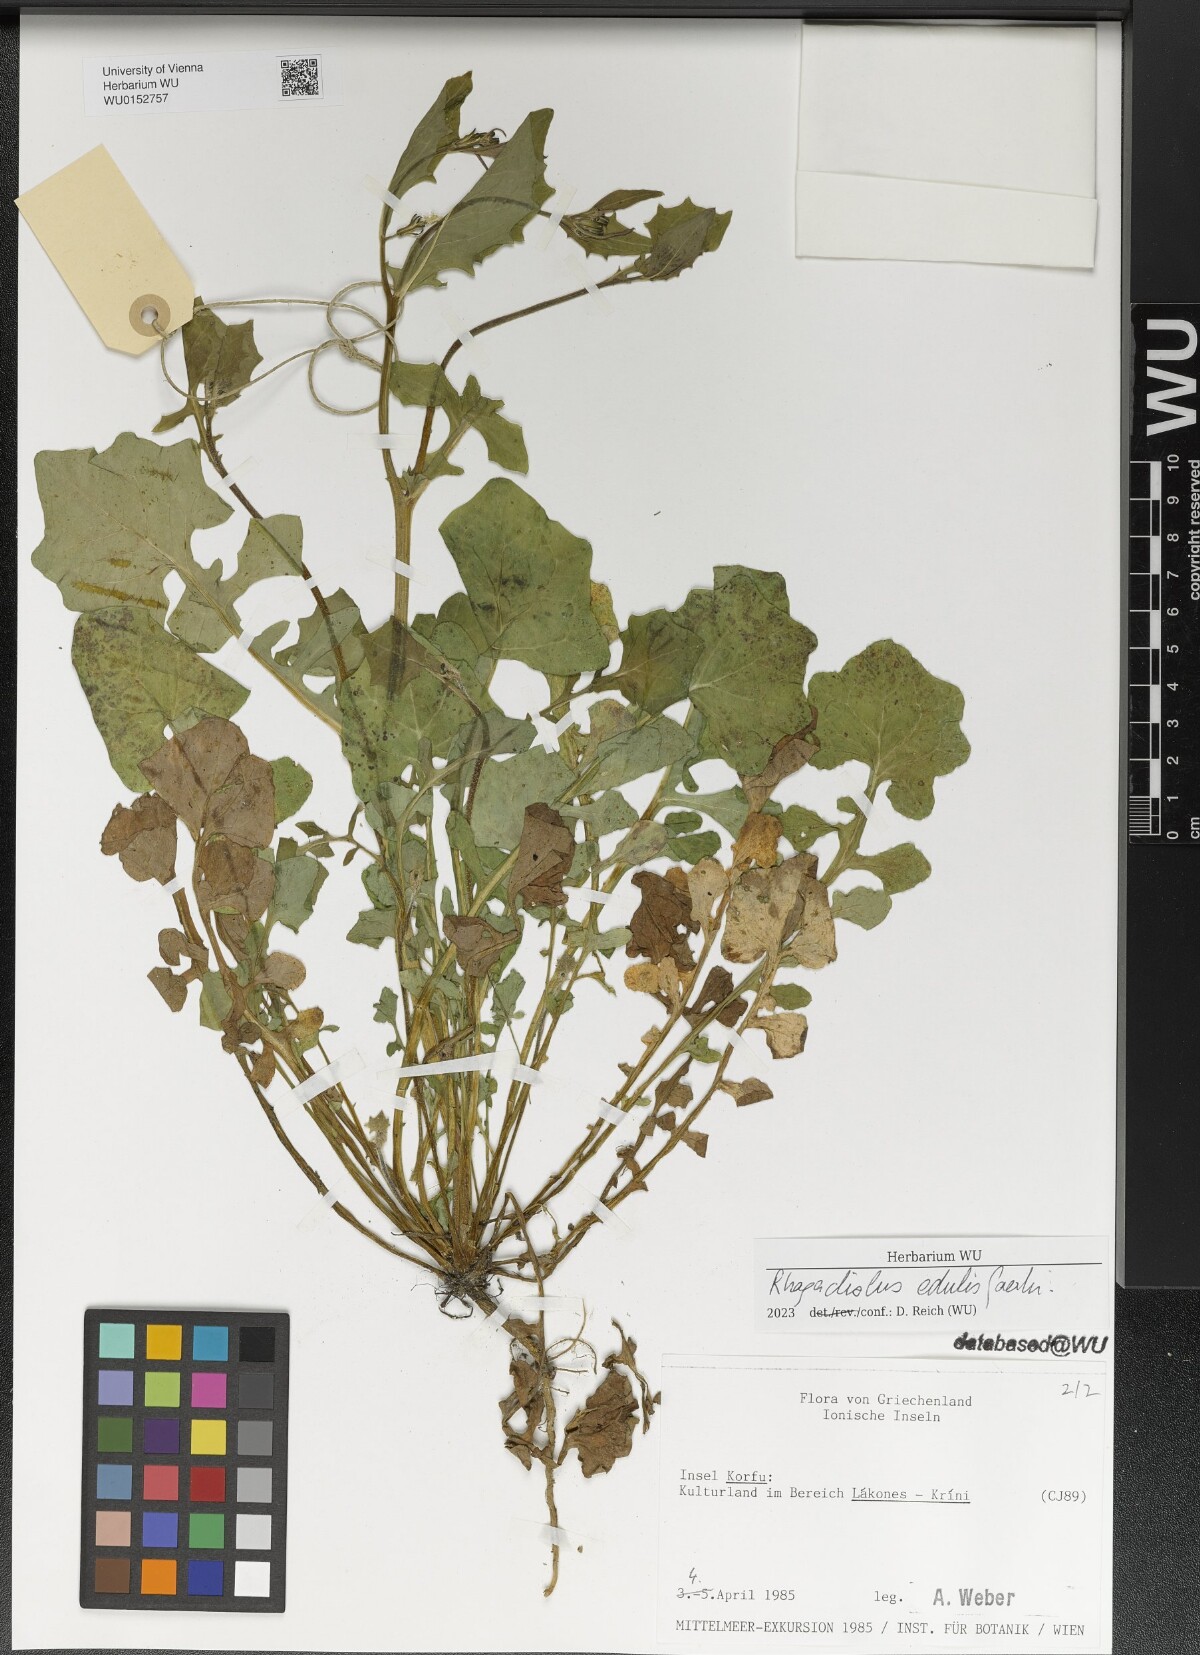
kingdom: Plantae
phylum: Tracheophyta
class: Magnoliopsida
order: Asterales
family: Asteraceae
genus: Rhagadiolus
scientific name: Rhagadiolus edulis
